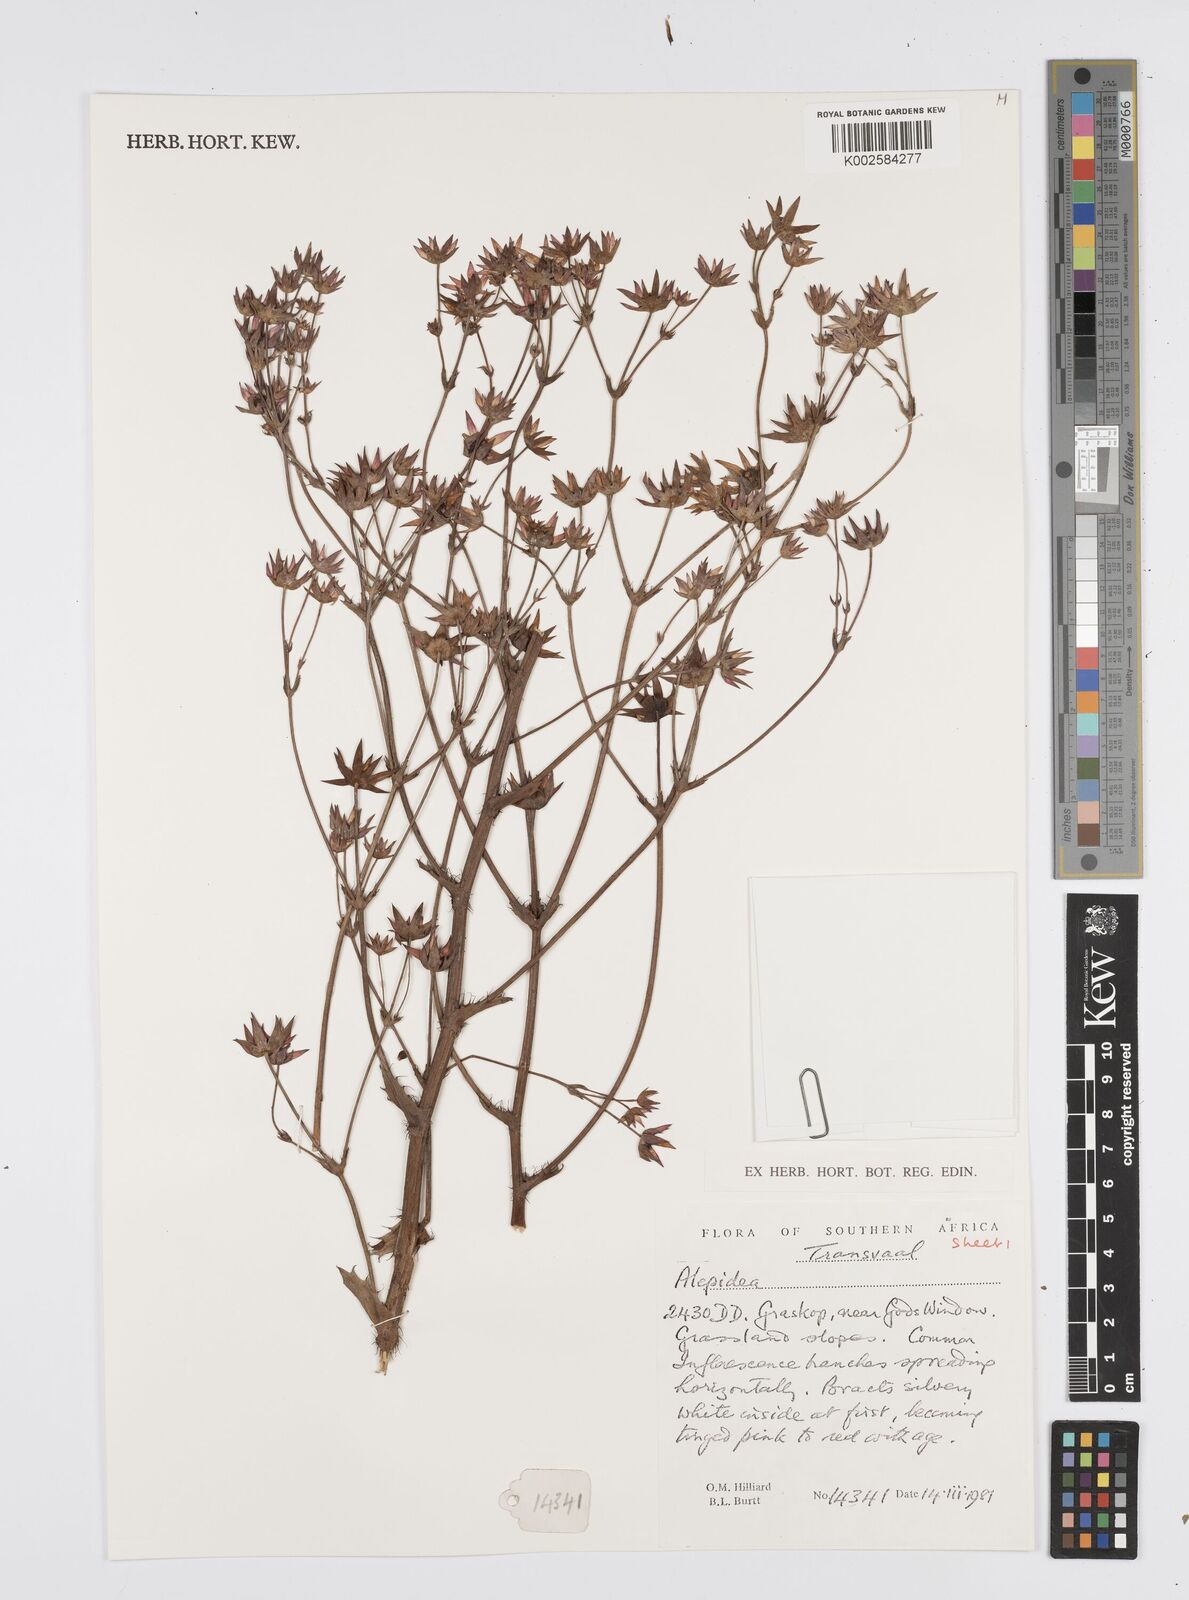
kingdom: Plantae
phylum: Tracheophyta
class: Magnoliopsida
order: Apiales
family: Apiaceae
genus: Alepidea
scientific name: Alepidea
